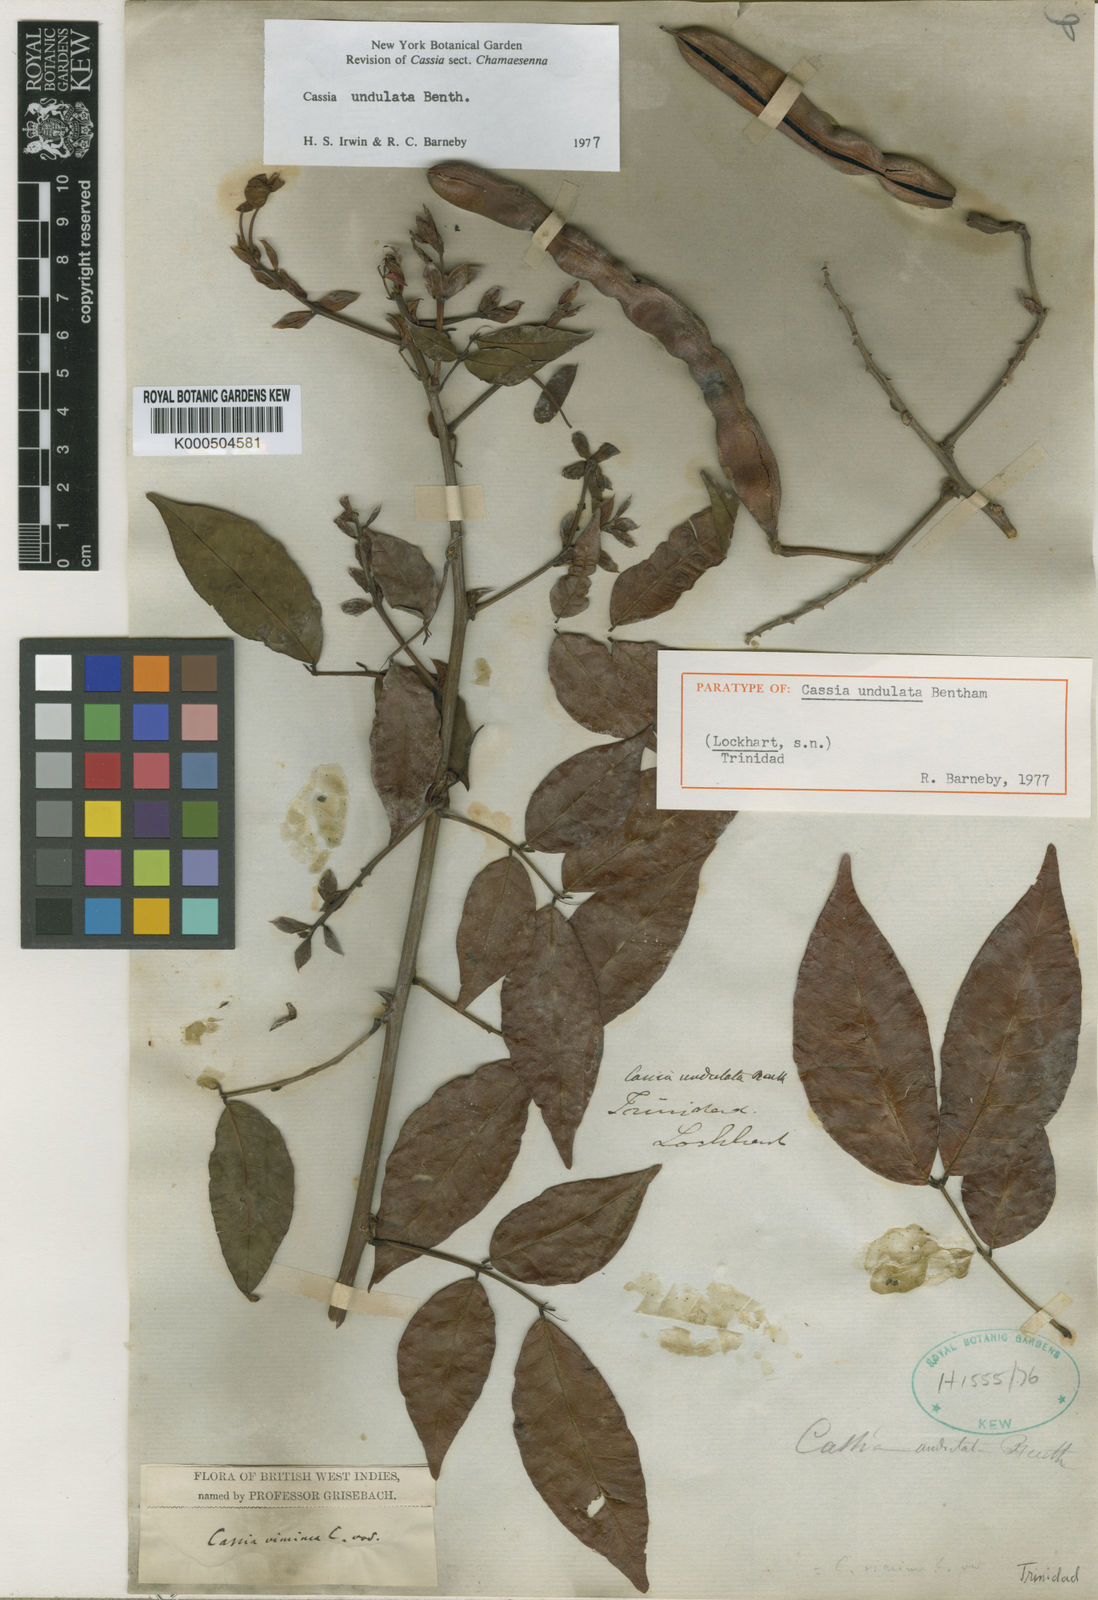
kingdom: Plantae
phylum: Tracheophyta
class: Magnoliopsida
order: Fabales
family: Fabaceae
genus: Senna
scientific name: Senna undulata
